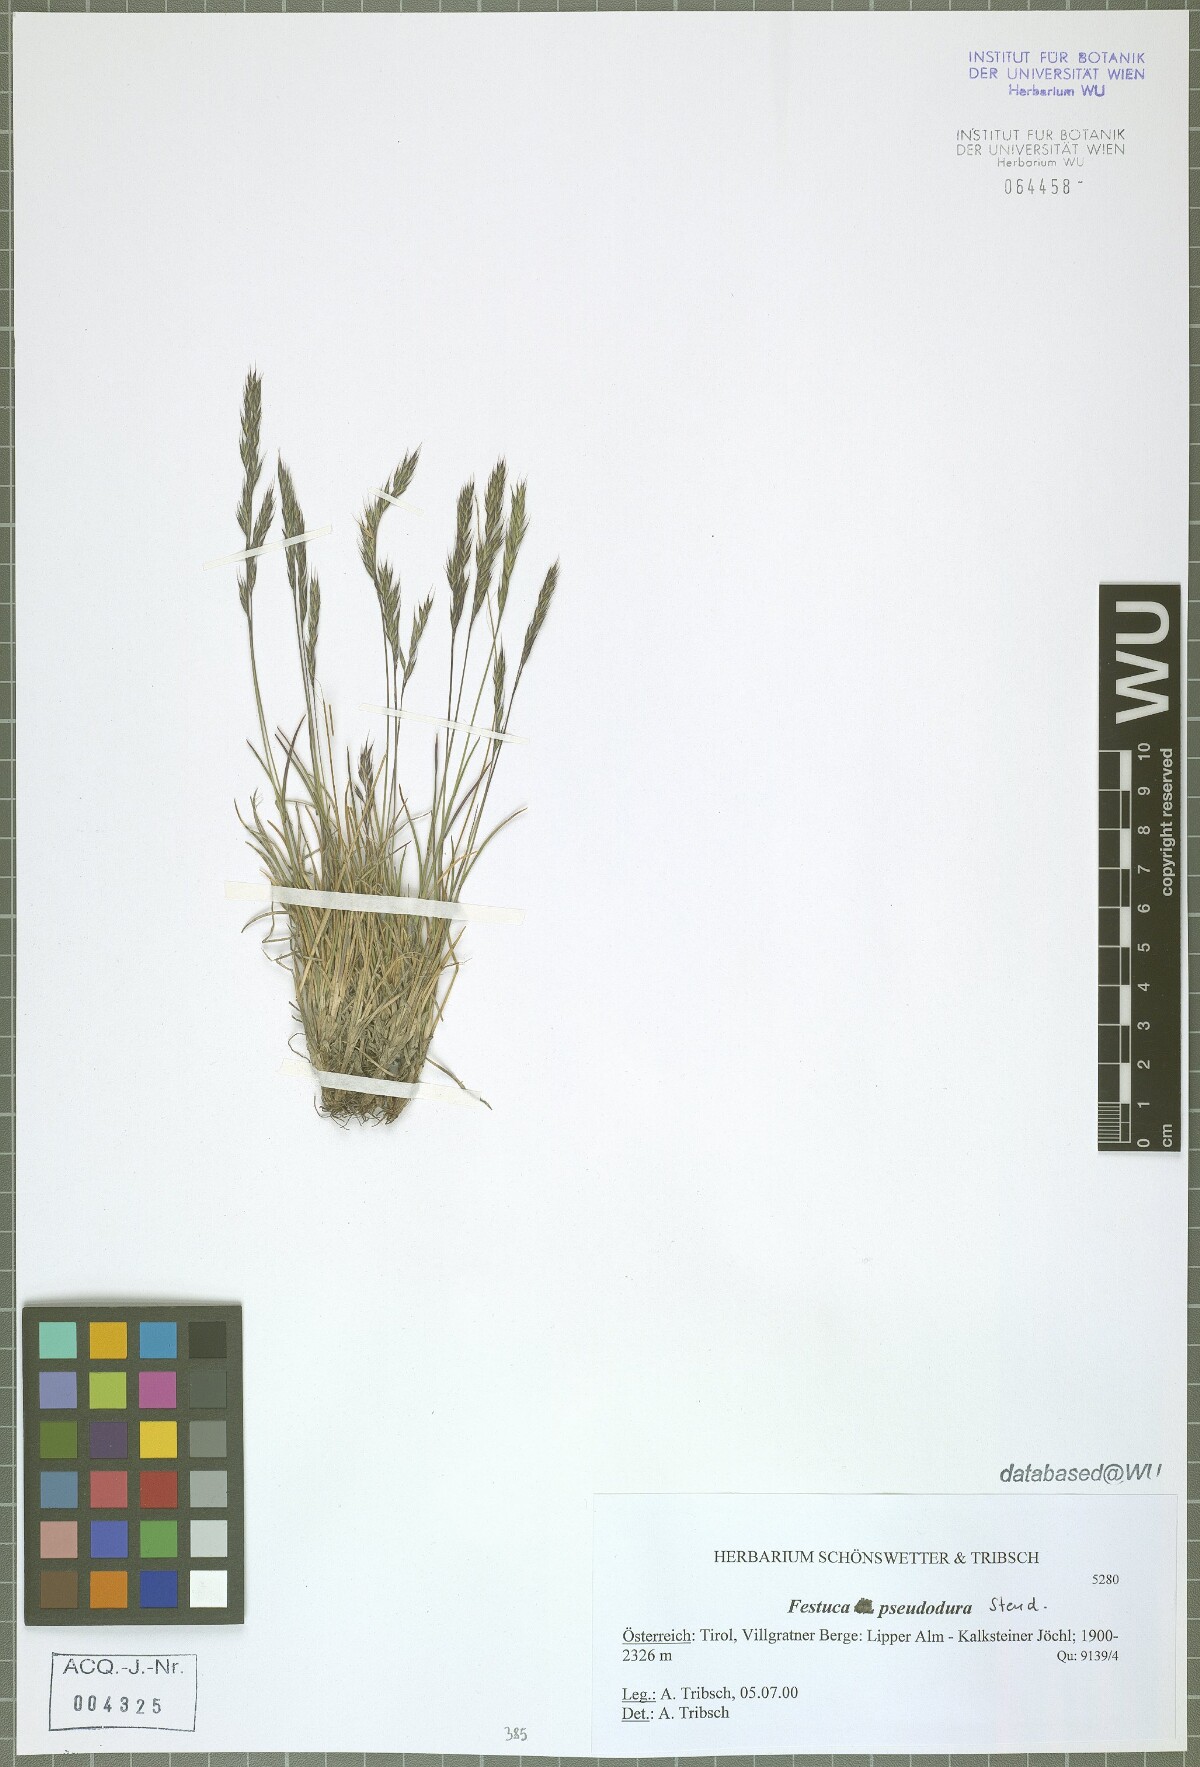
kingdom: Plantae
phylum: Tracheophyta
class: Liliopsida
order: Poales
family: Poaceae
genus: Festuca
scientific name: Festuca pseudodura
